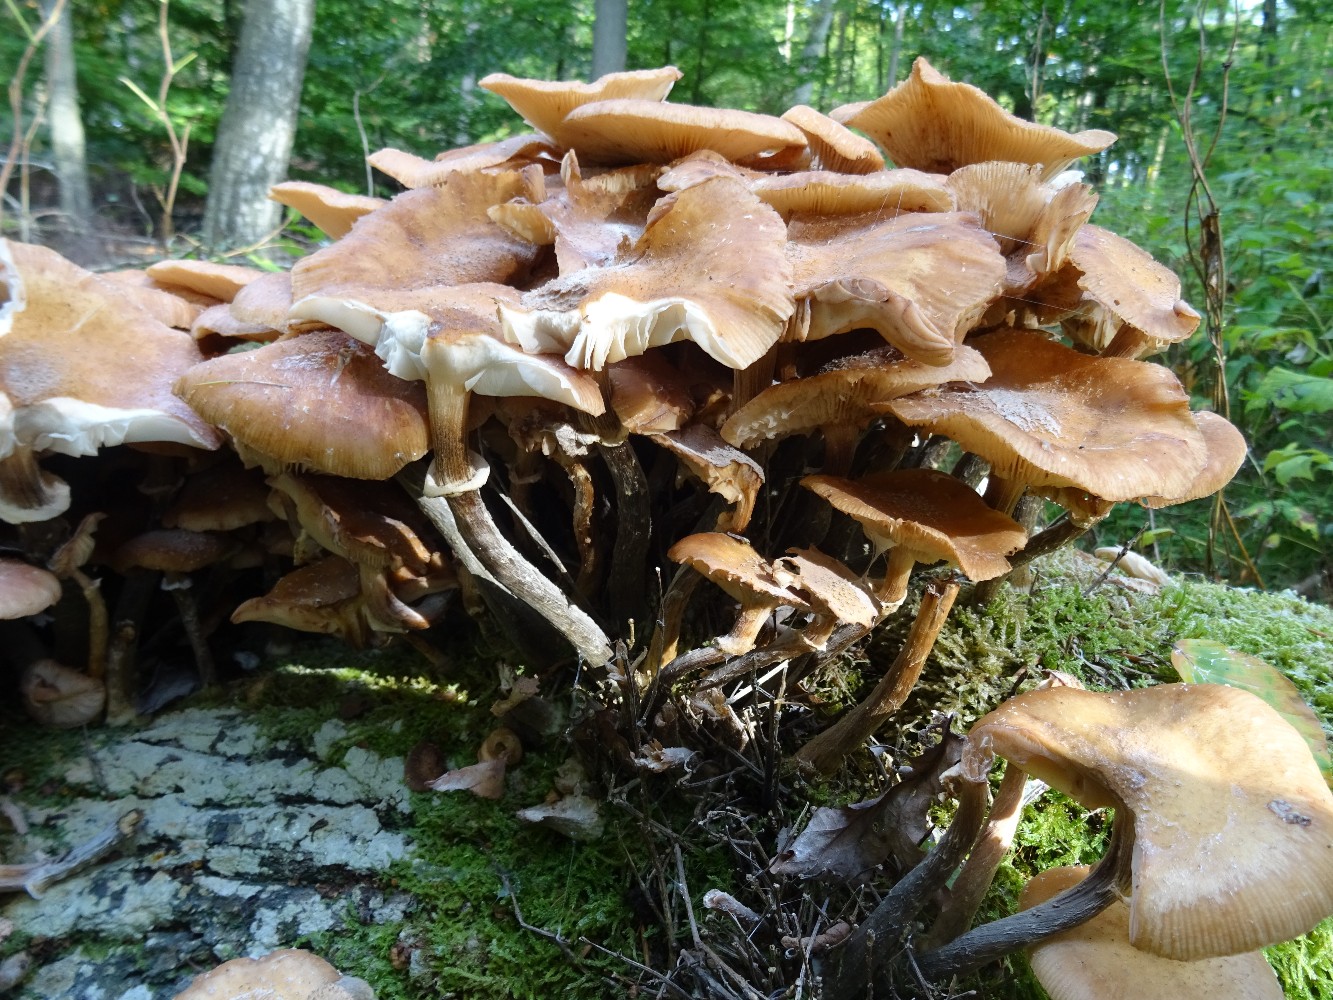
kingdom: Fungi
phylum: Basidiomycota
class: Agaricomycetes
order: Agaricales
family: Physalacriaceae
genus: Armillaria
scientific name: Armillaria mellea
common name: ægte honningsvamp
